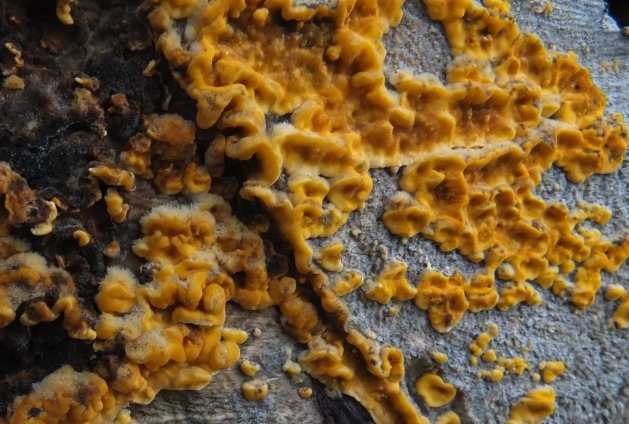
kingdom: Fungi
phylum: Basidiomycota
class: Agaricomycetes
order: Russulales
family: Stereaceae
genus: Stereum
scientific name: Stereum hirsutum
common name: håret lædersvamp
